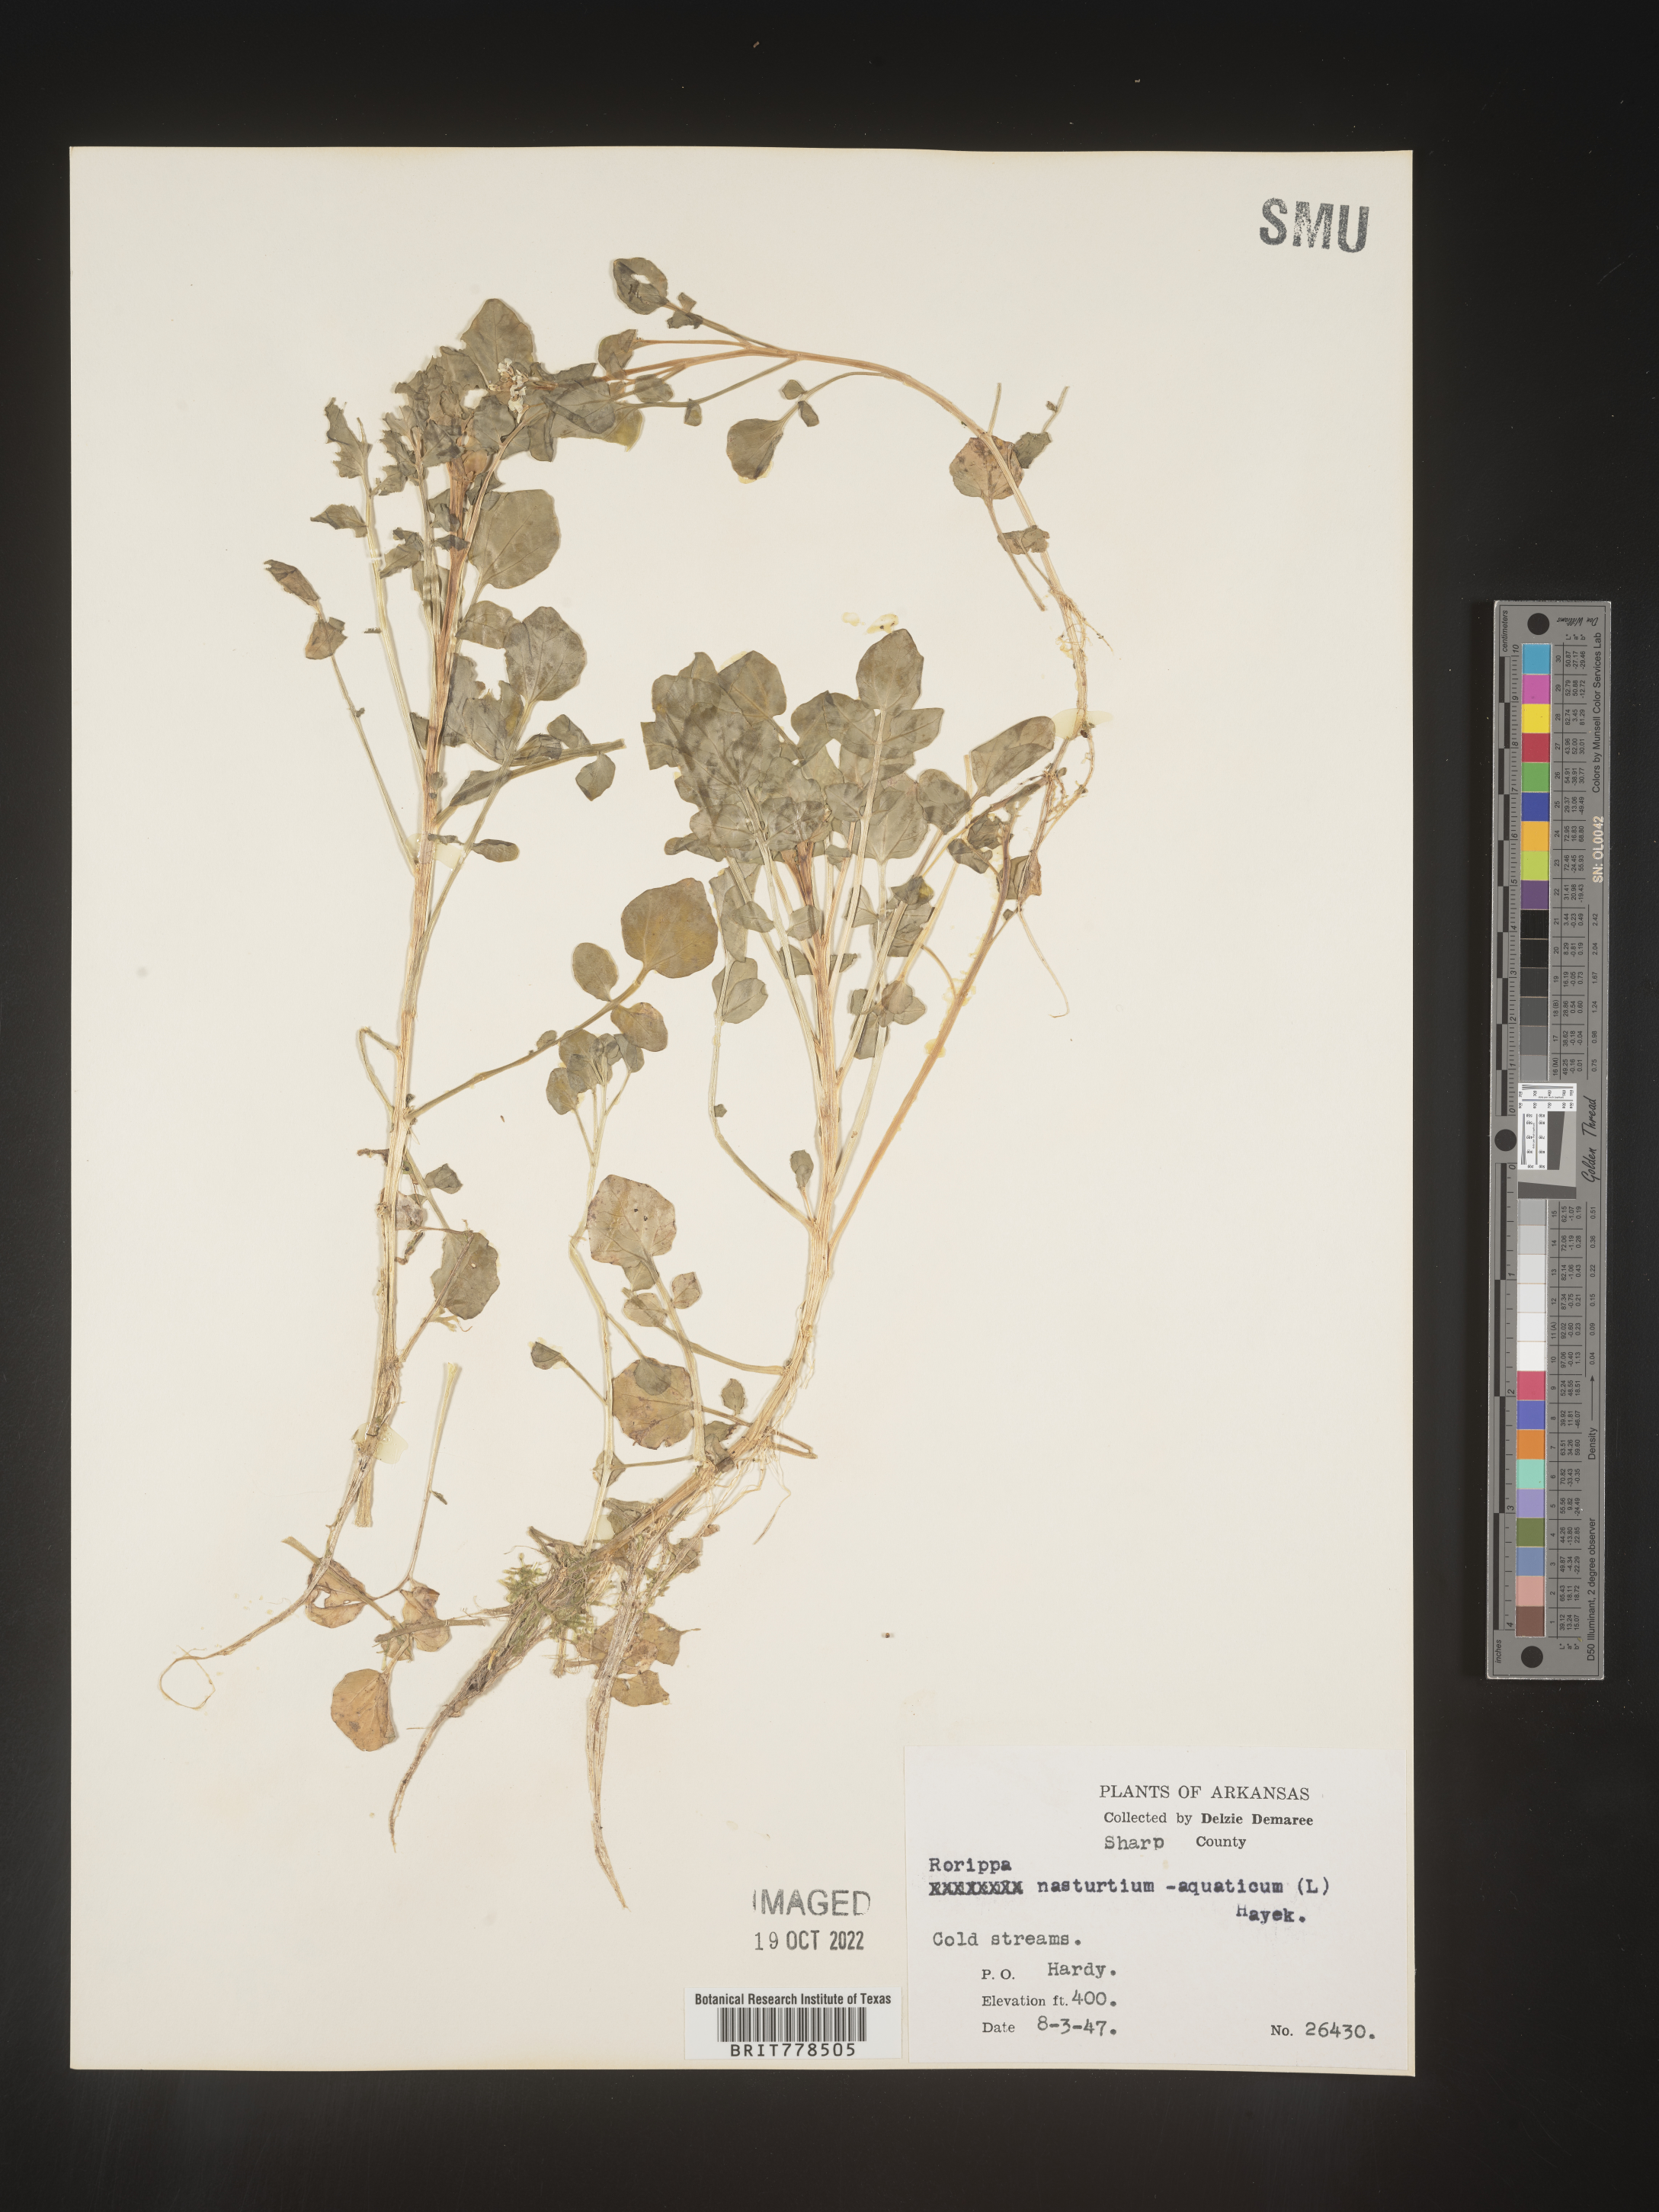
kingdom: Plantae
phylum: Tracheophyta
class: Magnoliopsida
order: Brassicales
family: Brassicaceae
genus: Nasturtium
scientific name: Nasturtium officinale
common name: Watercress
